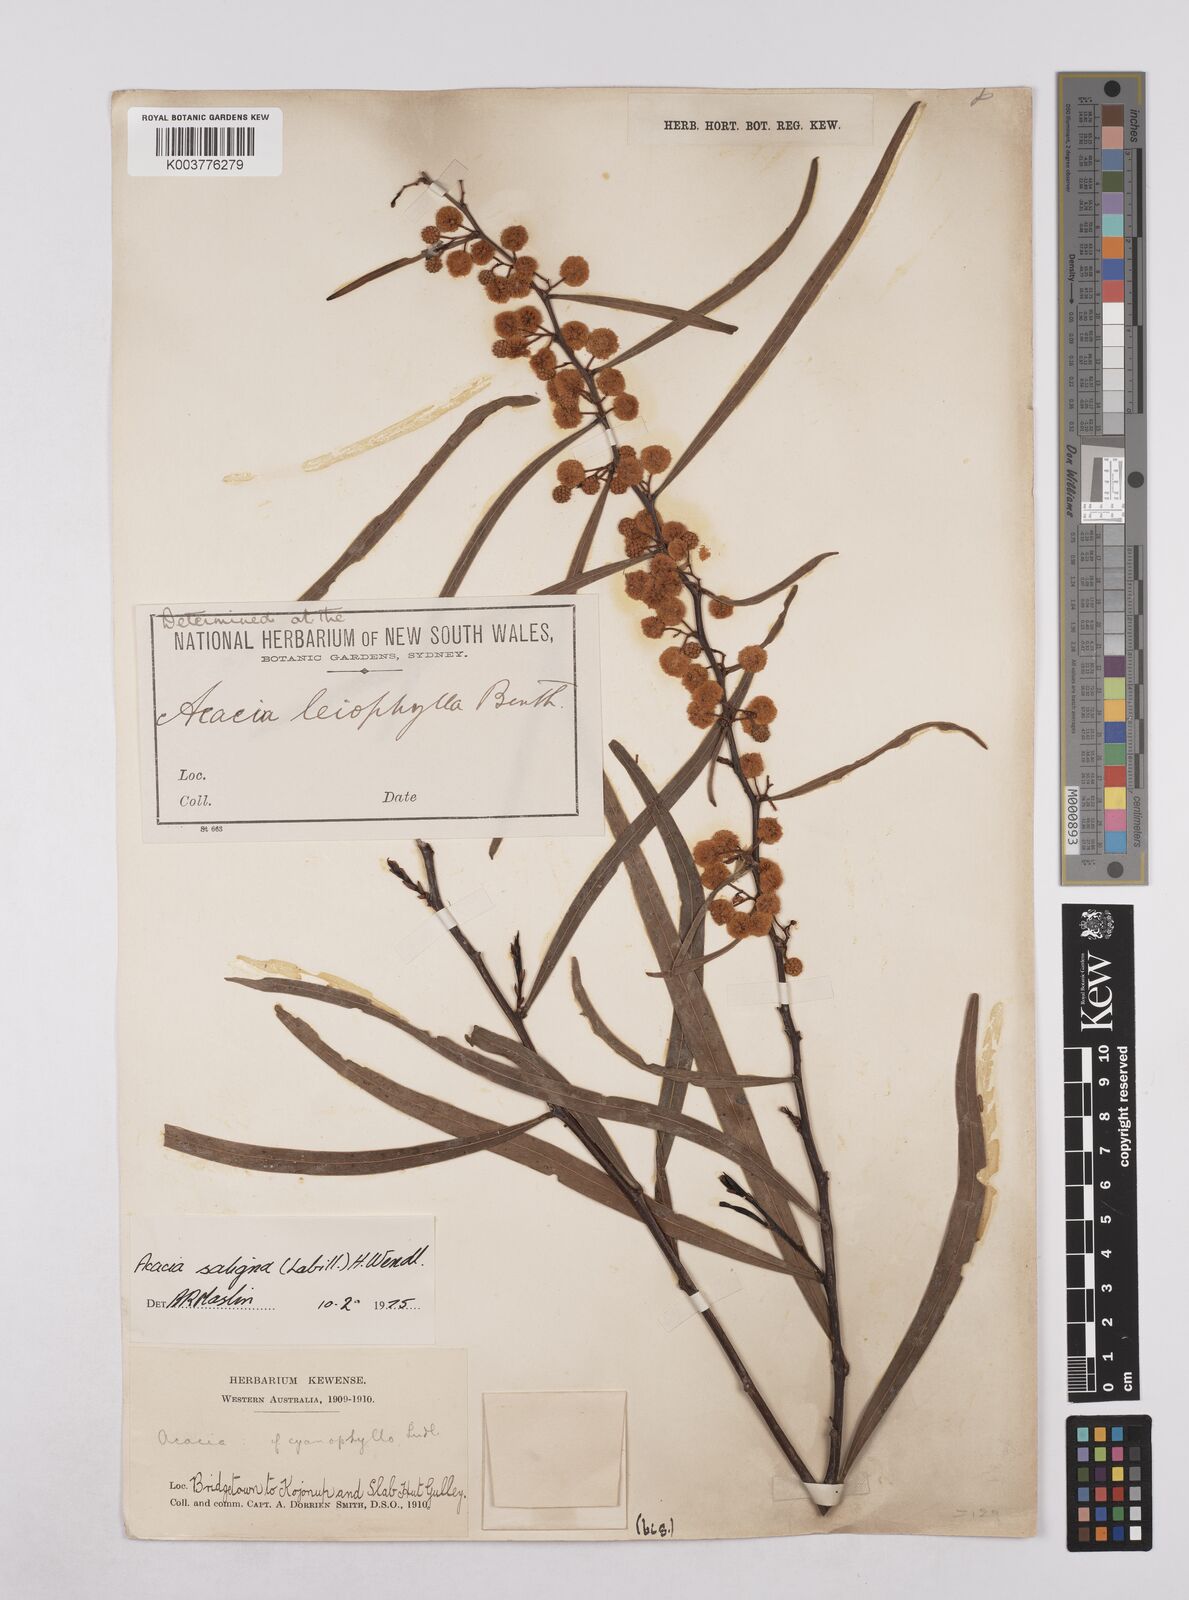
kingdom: Plantae
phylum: Tracheophyta
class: Magnoliopsida
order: Fabales
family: Fabaceae
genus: Acacia
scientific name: Acacia saligna
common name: Orange wattle
